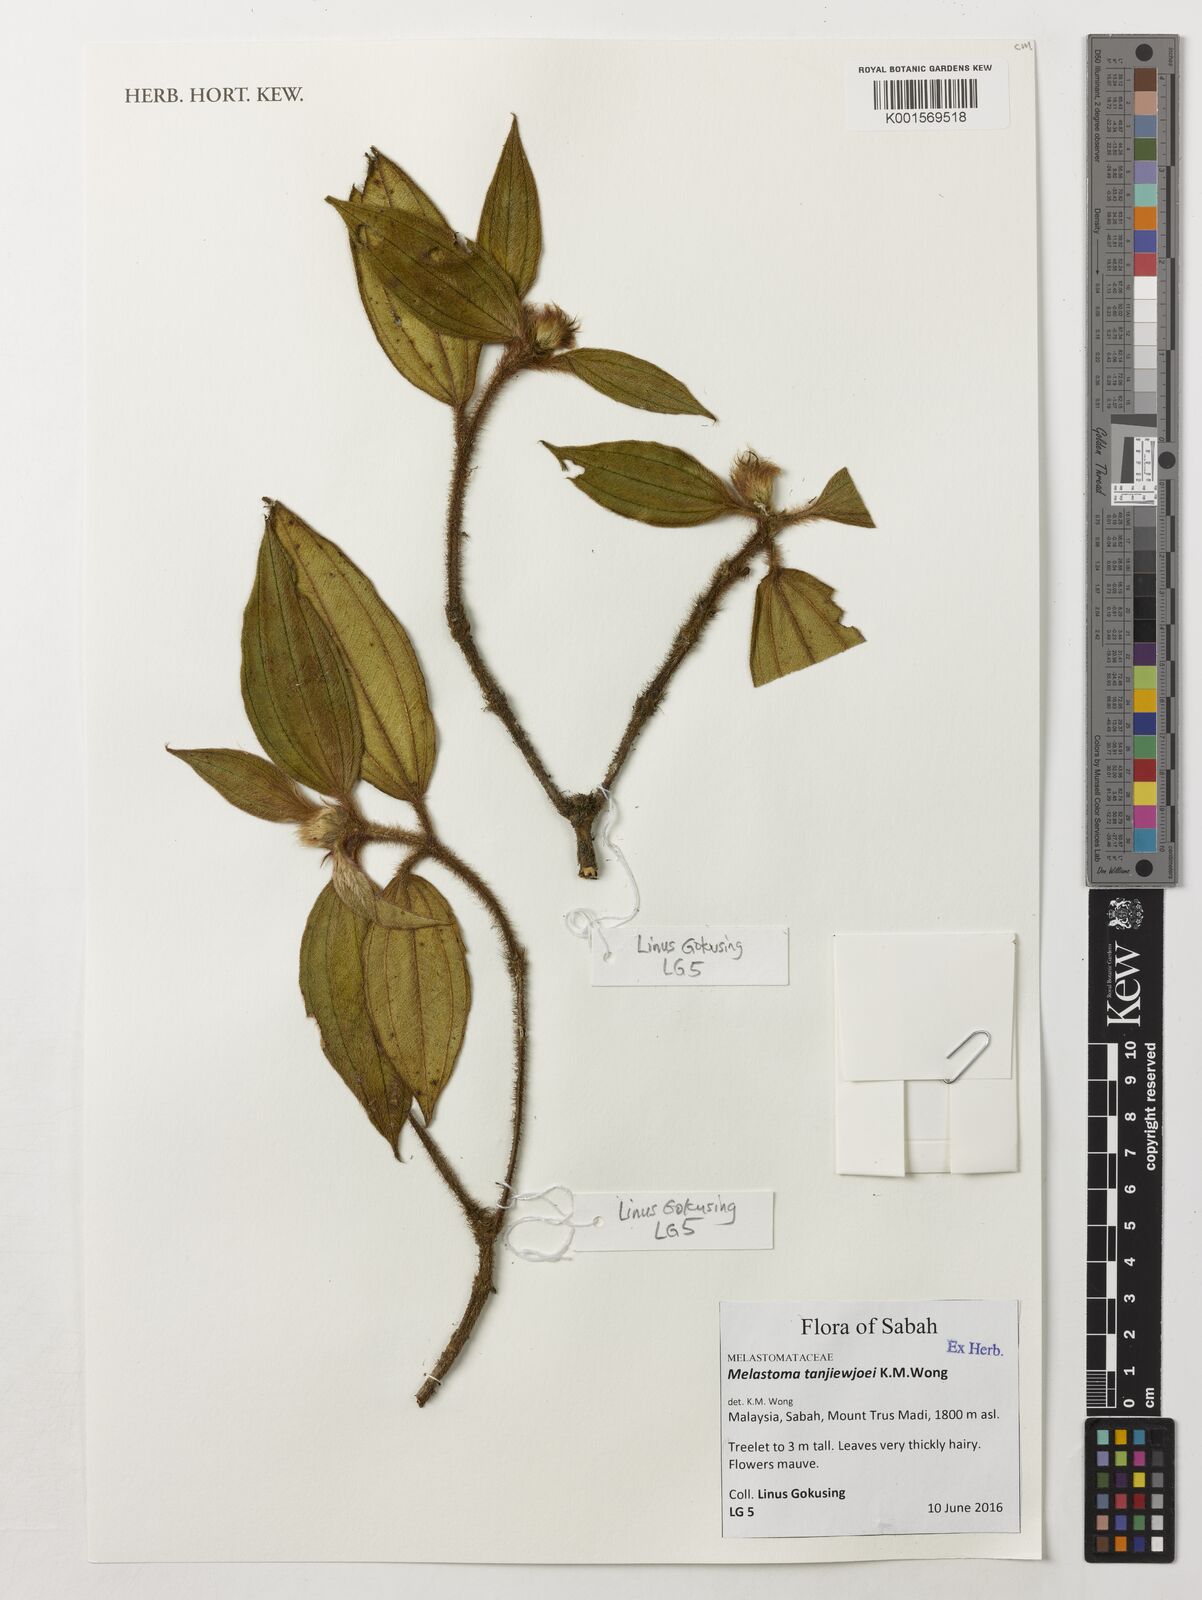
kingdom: Plantae
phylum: Tracheophyta
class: Magnoliopsida
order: Myrtales
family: Melastomataceae
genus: Melastoma
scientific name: Melastoma tanjiewhoei
